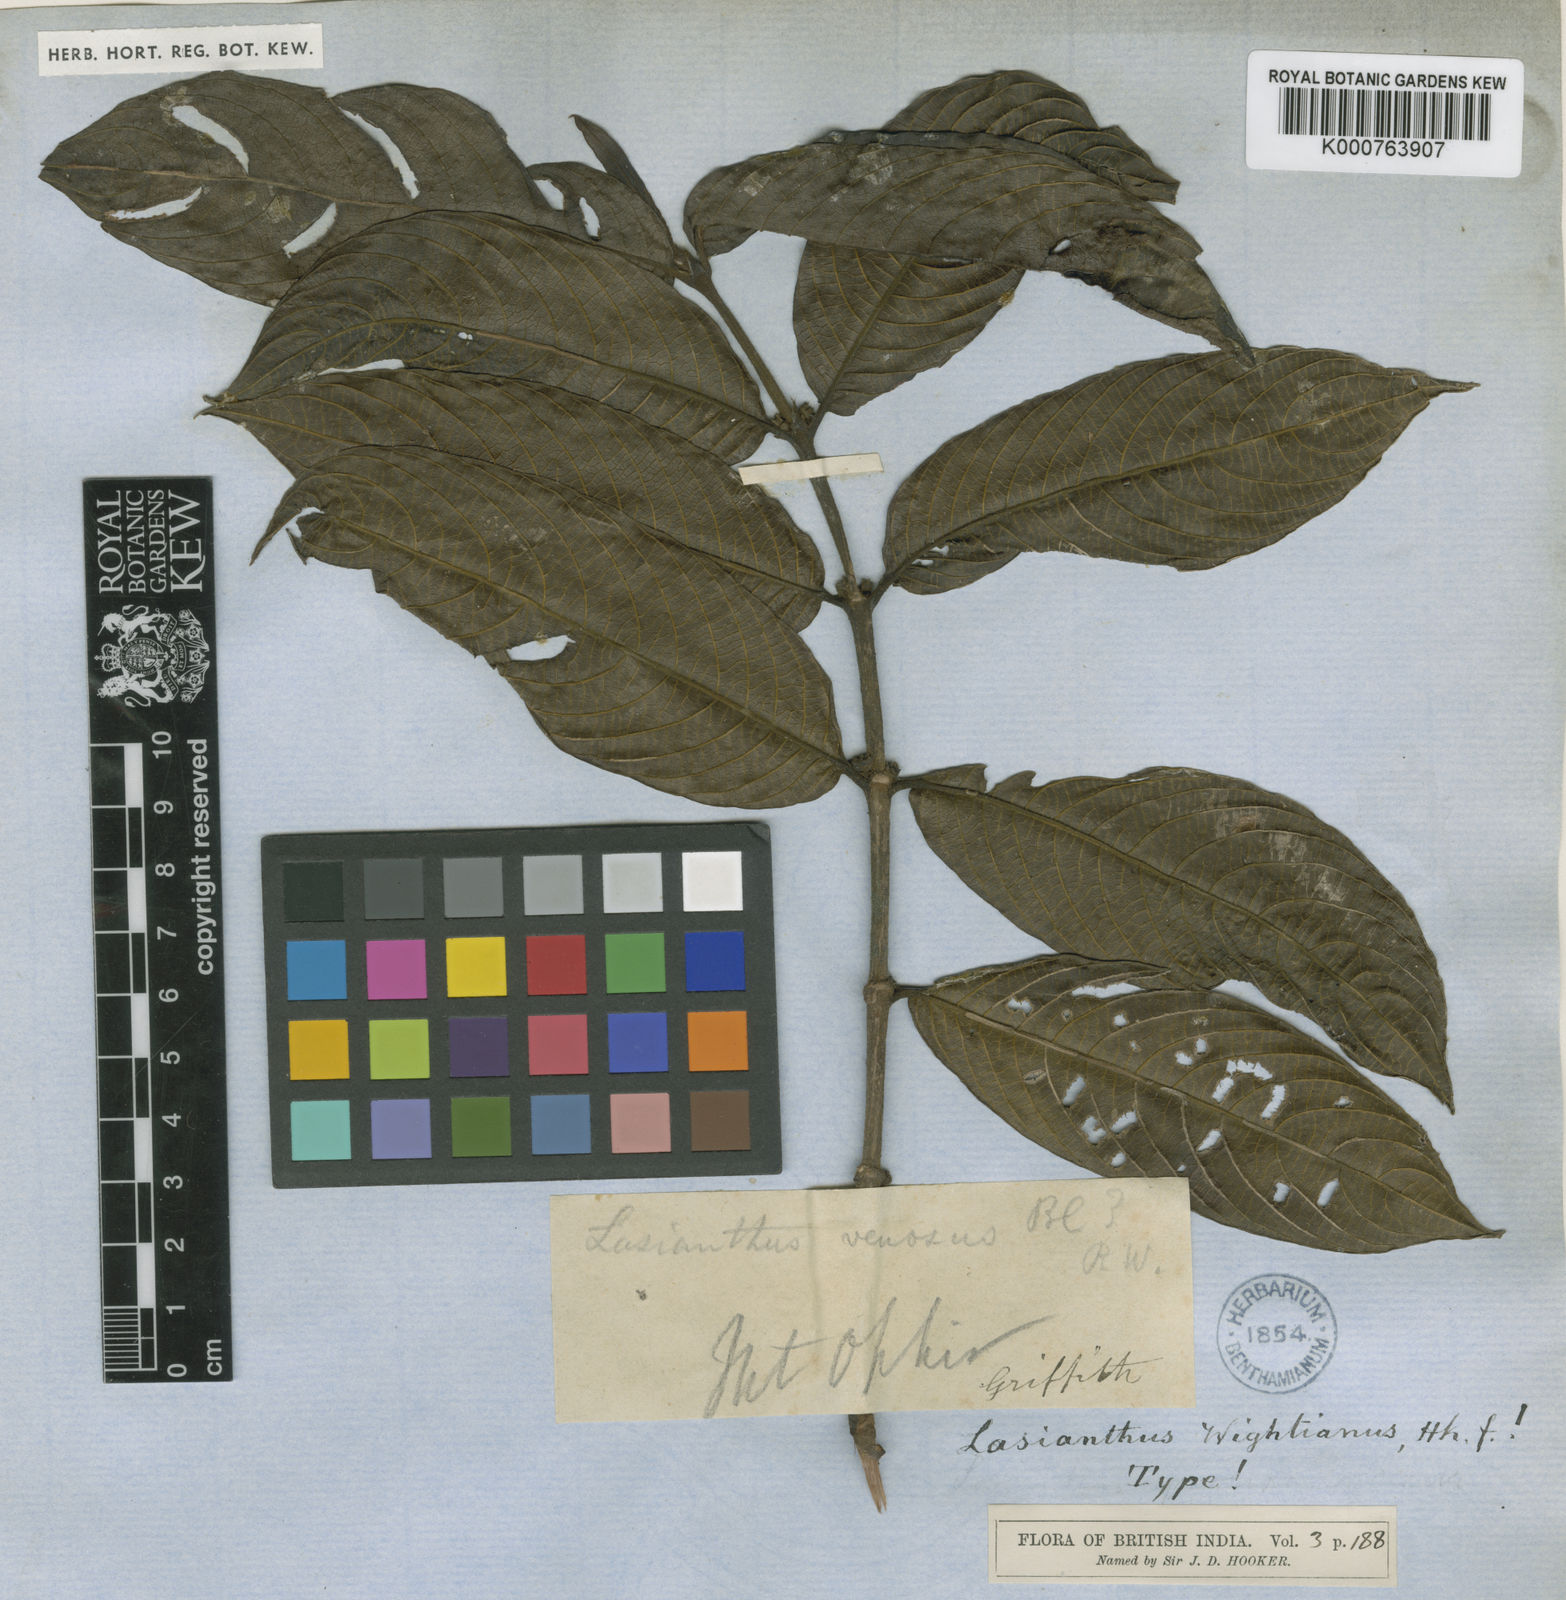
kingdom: Plantae
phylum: Tracheophyta
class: Magnoliopsida
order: Gentianales
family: Rubiaceae
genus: Lasianthus
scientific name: Lasianthus wightianus
